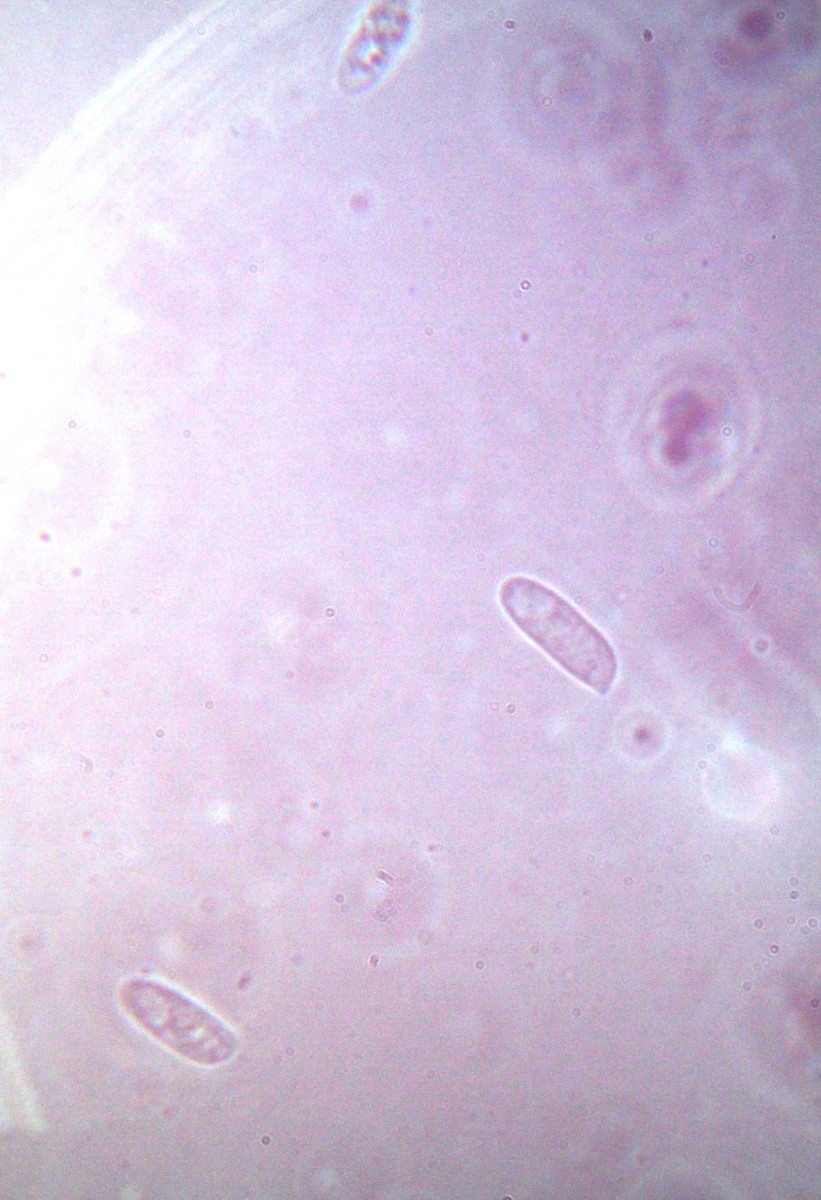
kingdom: Fungi
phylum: Basidiomycota
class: Agaricomycetes
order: Agaricales
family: Physalacriaceae
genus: Flammulina
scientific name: Flammulina elastica
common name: pile-fløjlsfod
